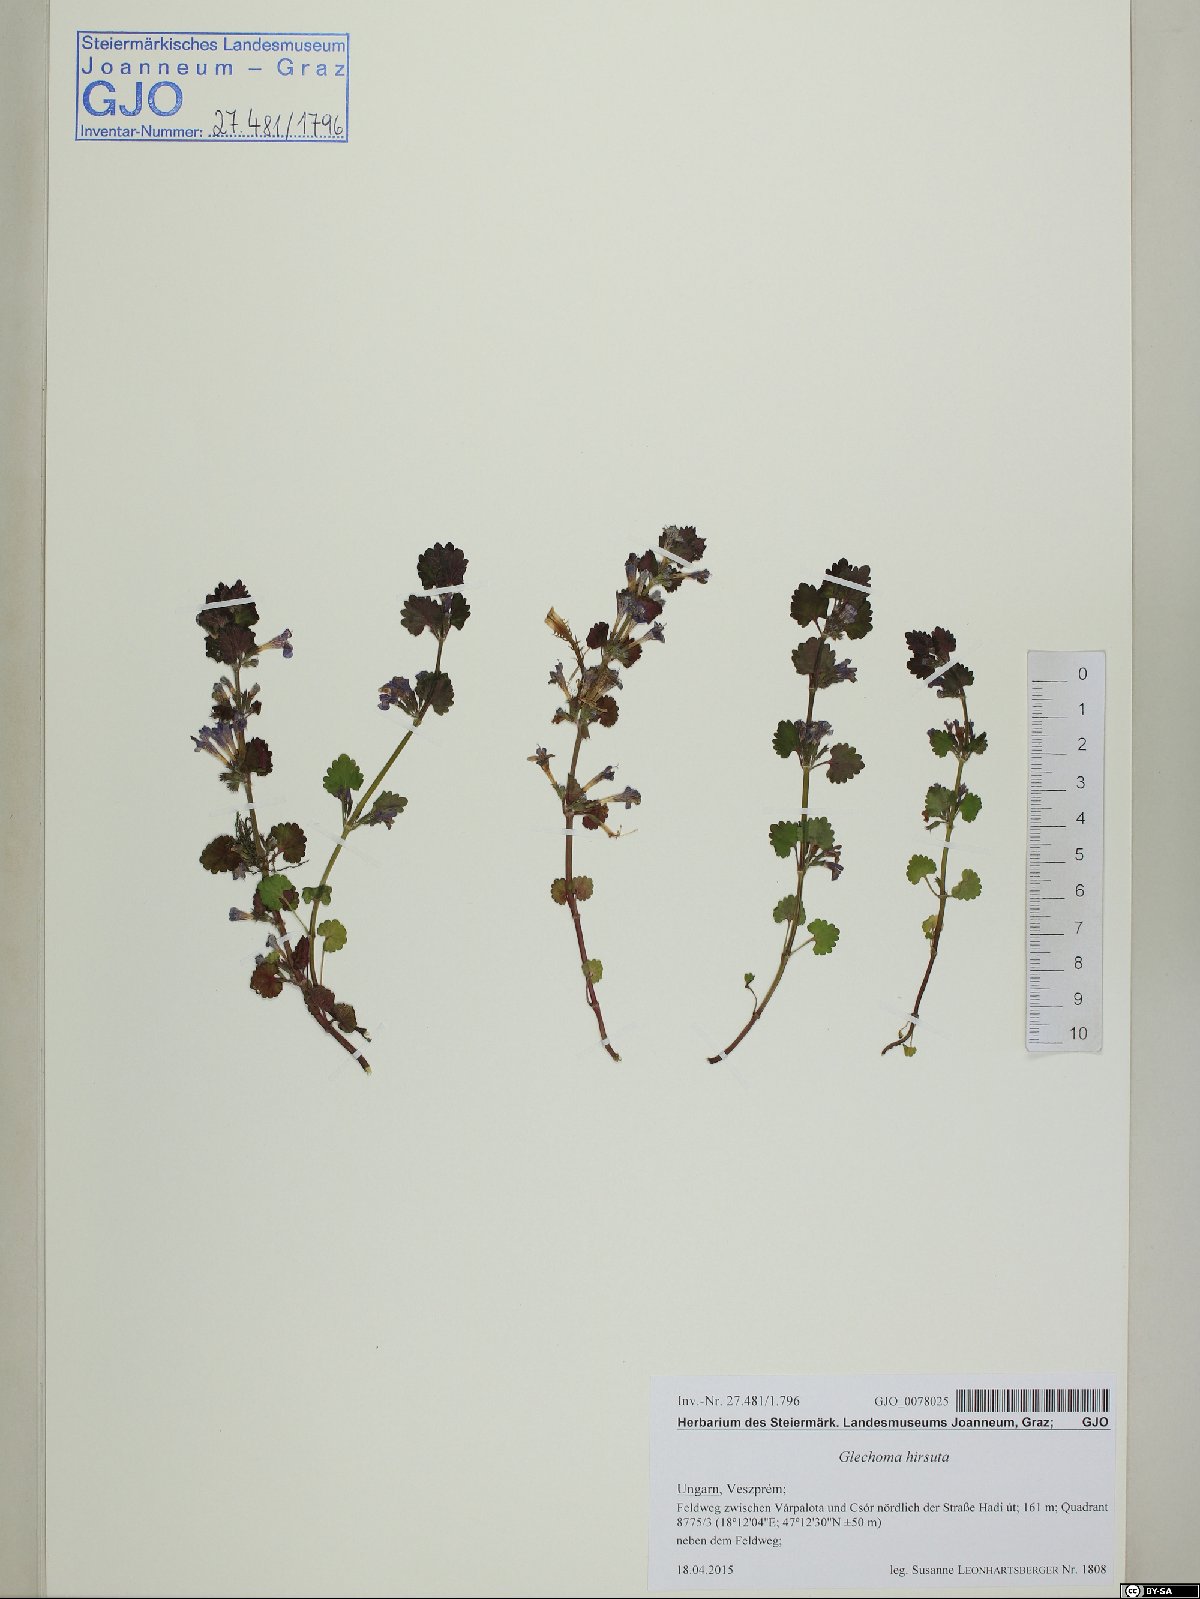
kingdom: Plantae
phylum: Tracheophyta
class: Magnoliopsida
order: Lamiales
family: Lamiaceae
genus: Glechoma
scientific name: Glechoma hirsuta
